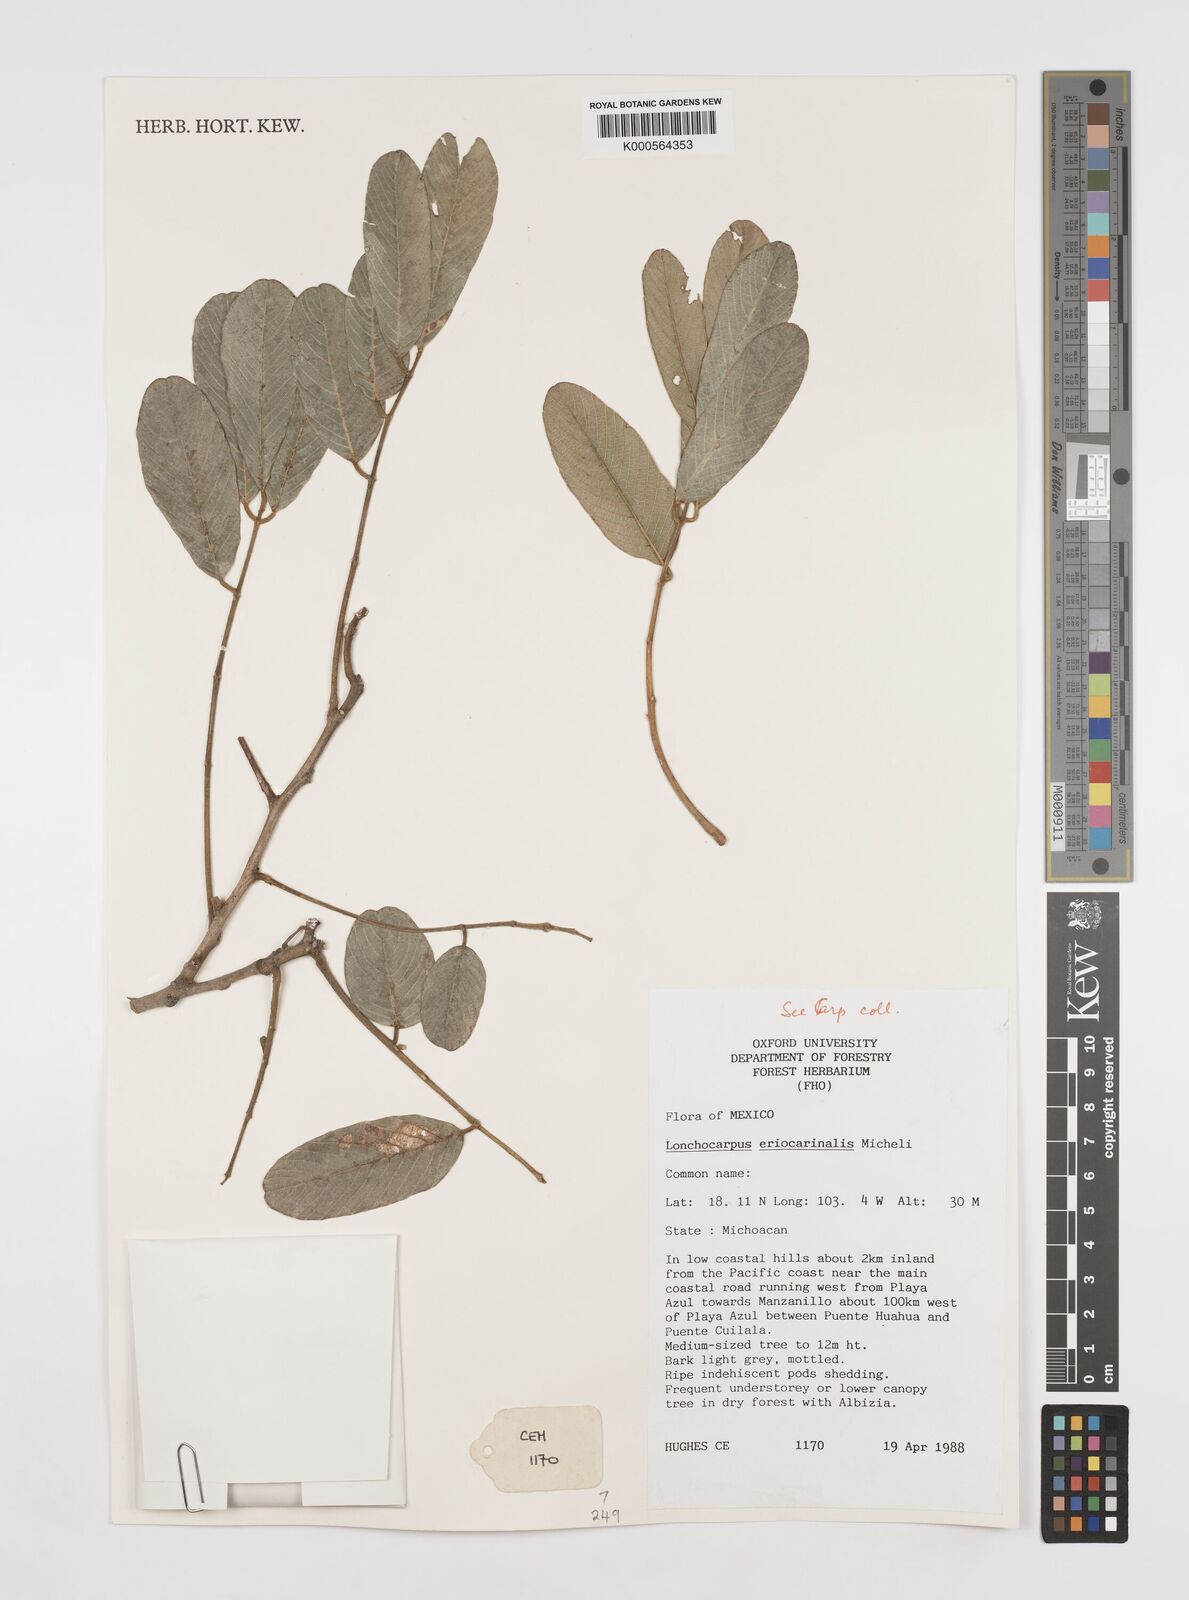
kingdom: Plantae
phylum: Tracheophyta
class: Magnoliopsida
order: Fabales
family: Fabaceae
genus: Lonchocarpus
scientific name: Lonchocarpus eriocarinalis
